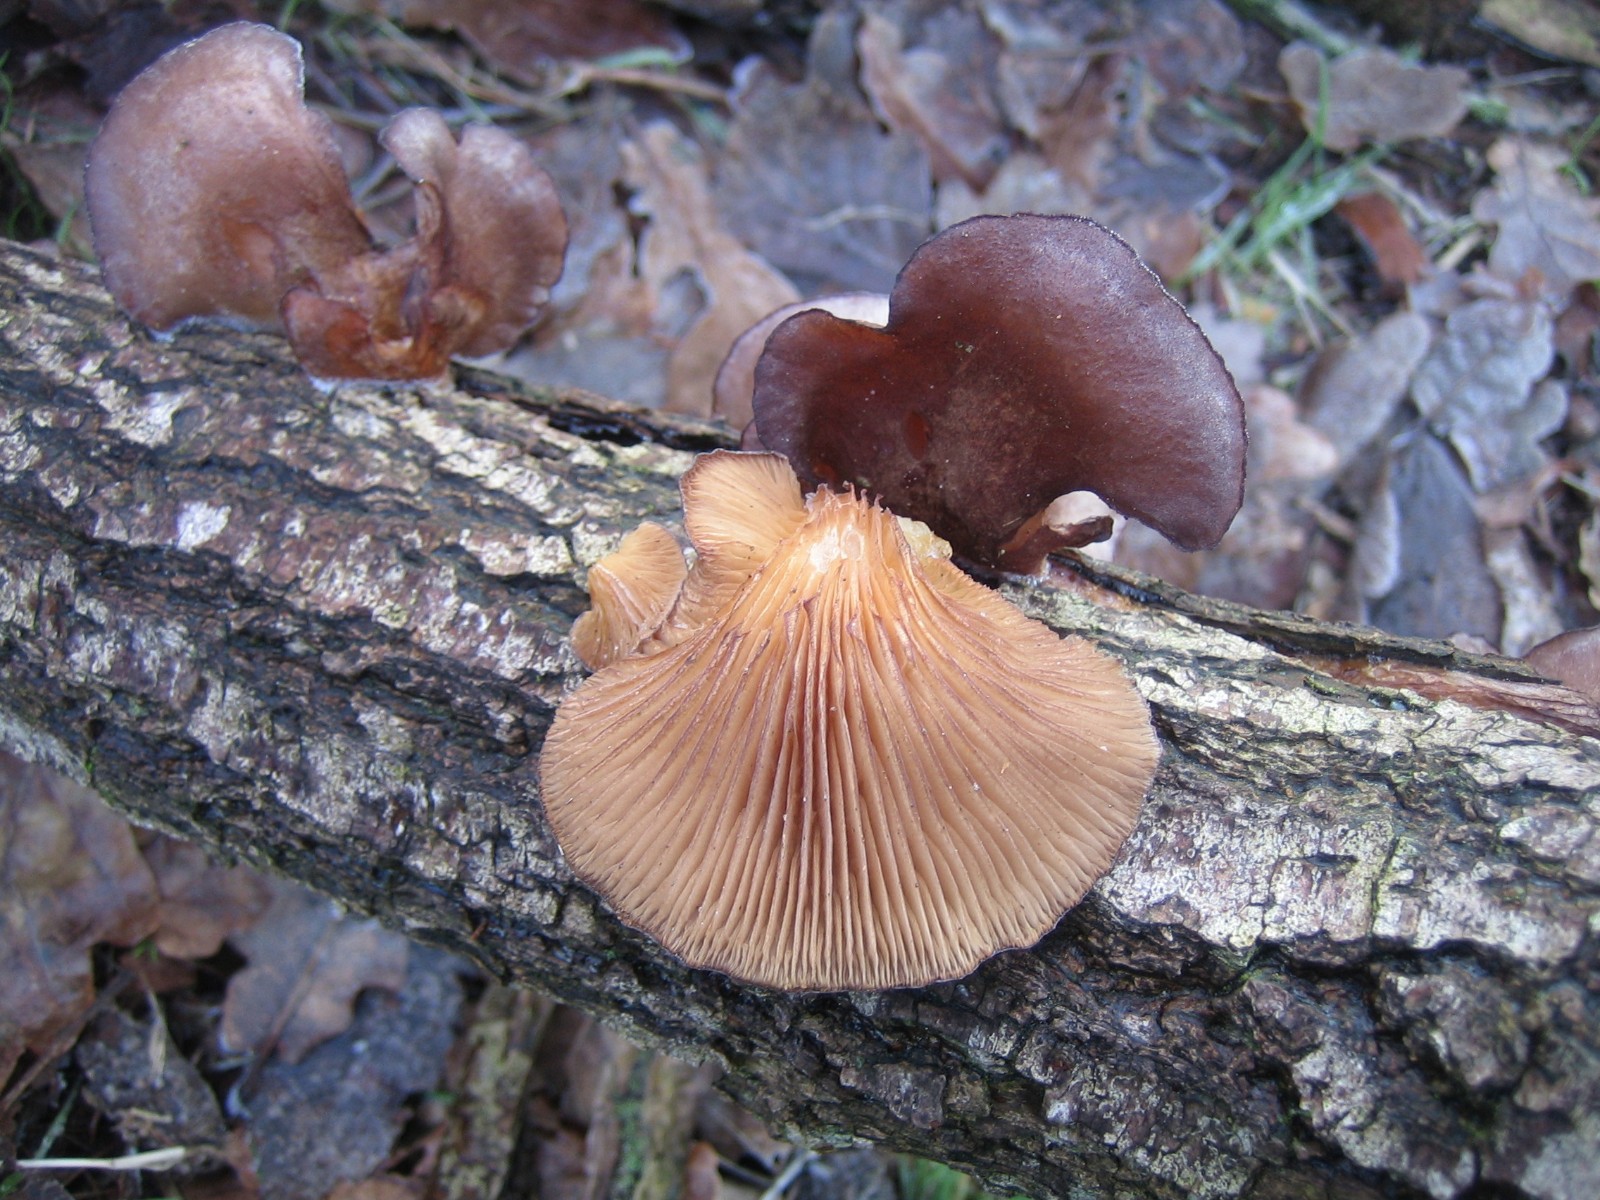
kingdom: Fungi
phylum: Basidiomycota
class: Agaricomycetes
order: Agaricales
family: Sarcomyxaceae
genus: Sarcomyxa
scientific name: Sarcomyxa serotina
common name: gummihat
